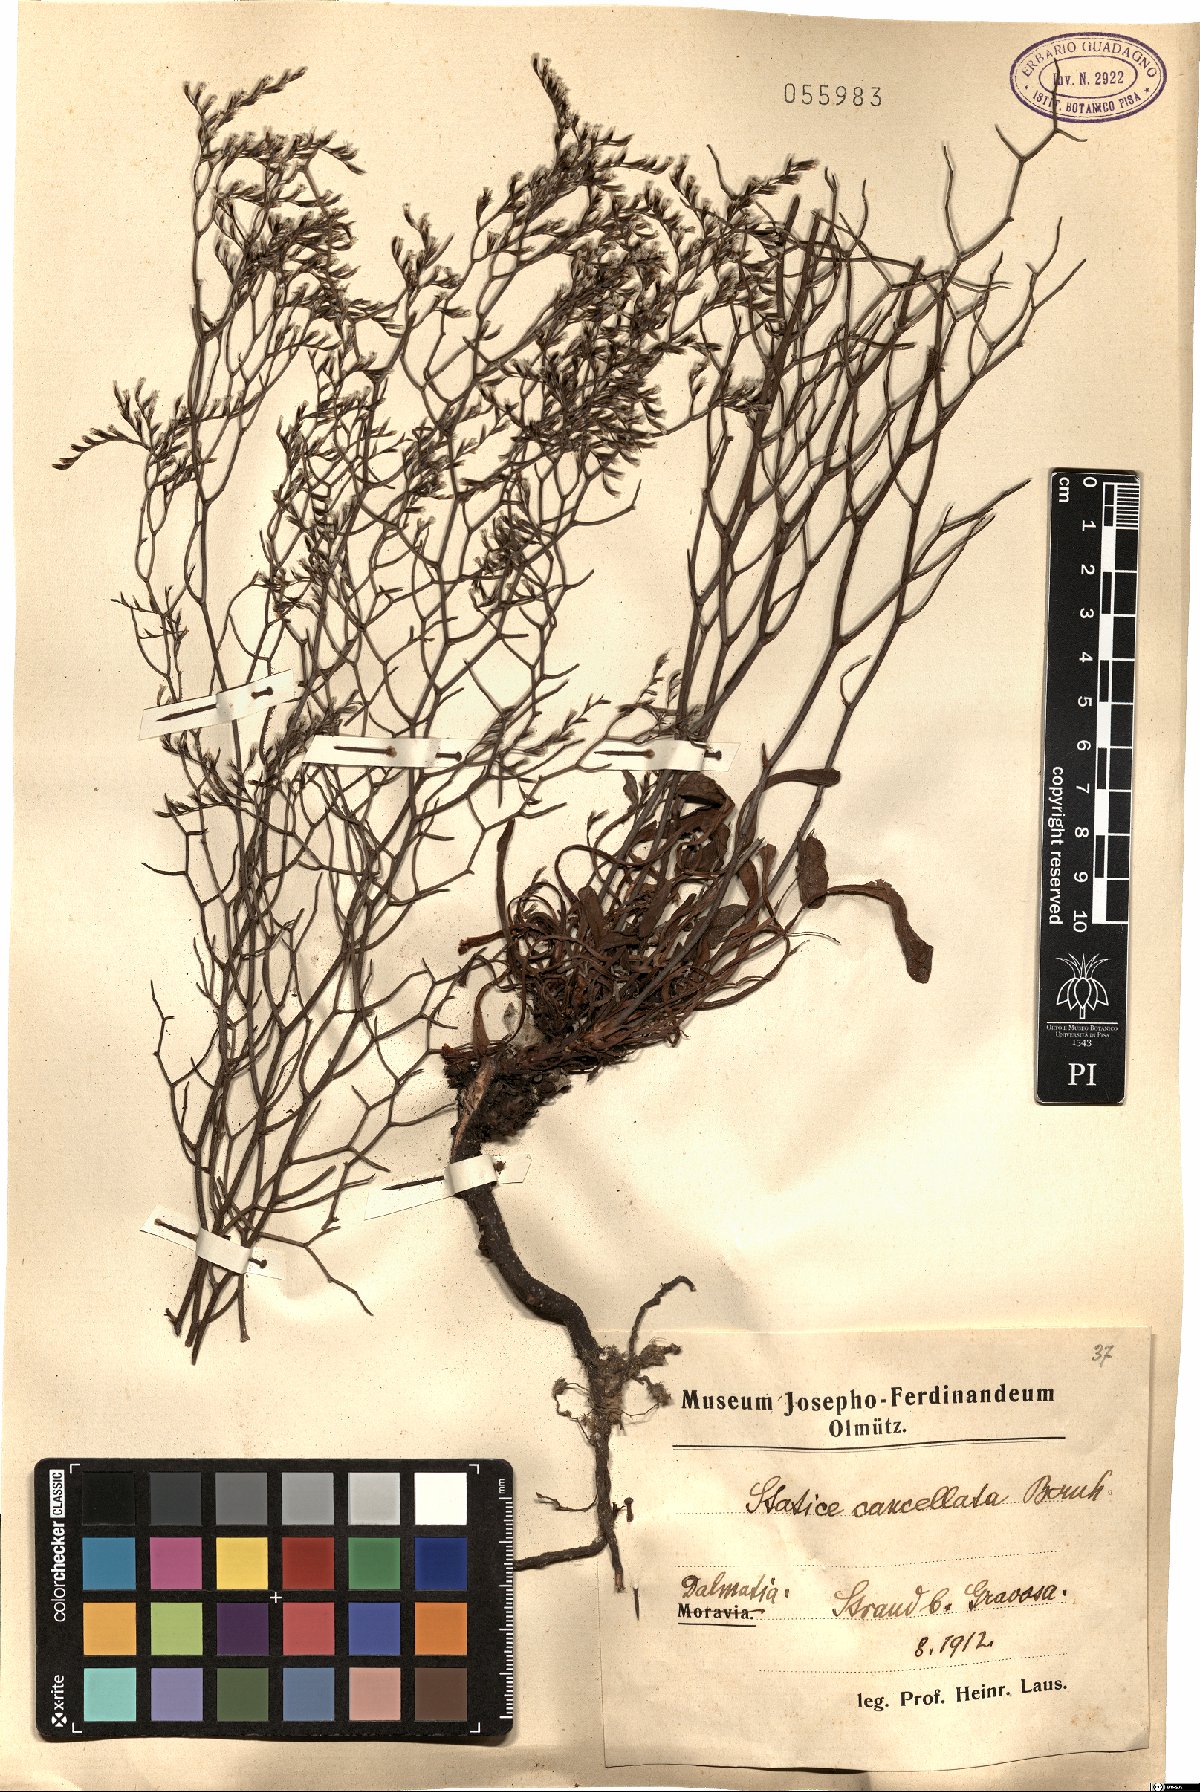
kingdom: Plantae
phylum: Tracheophyta
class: Magnoliopsida
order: Caryophyllales
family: Plumbaginaceae
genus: Limonium
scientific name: Limonium cancellatum
